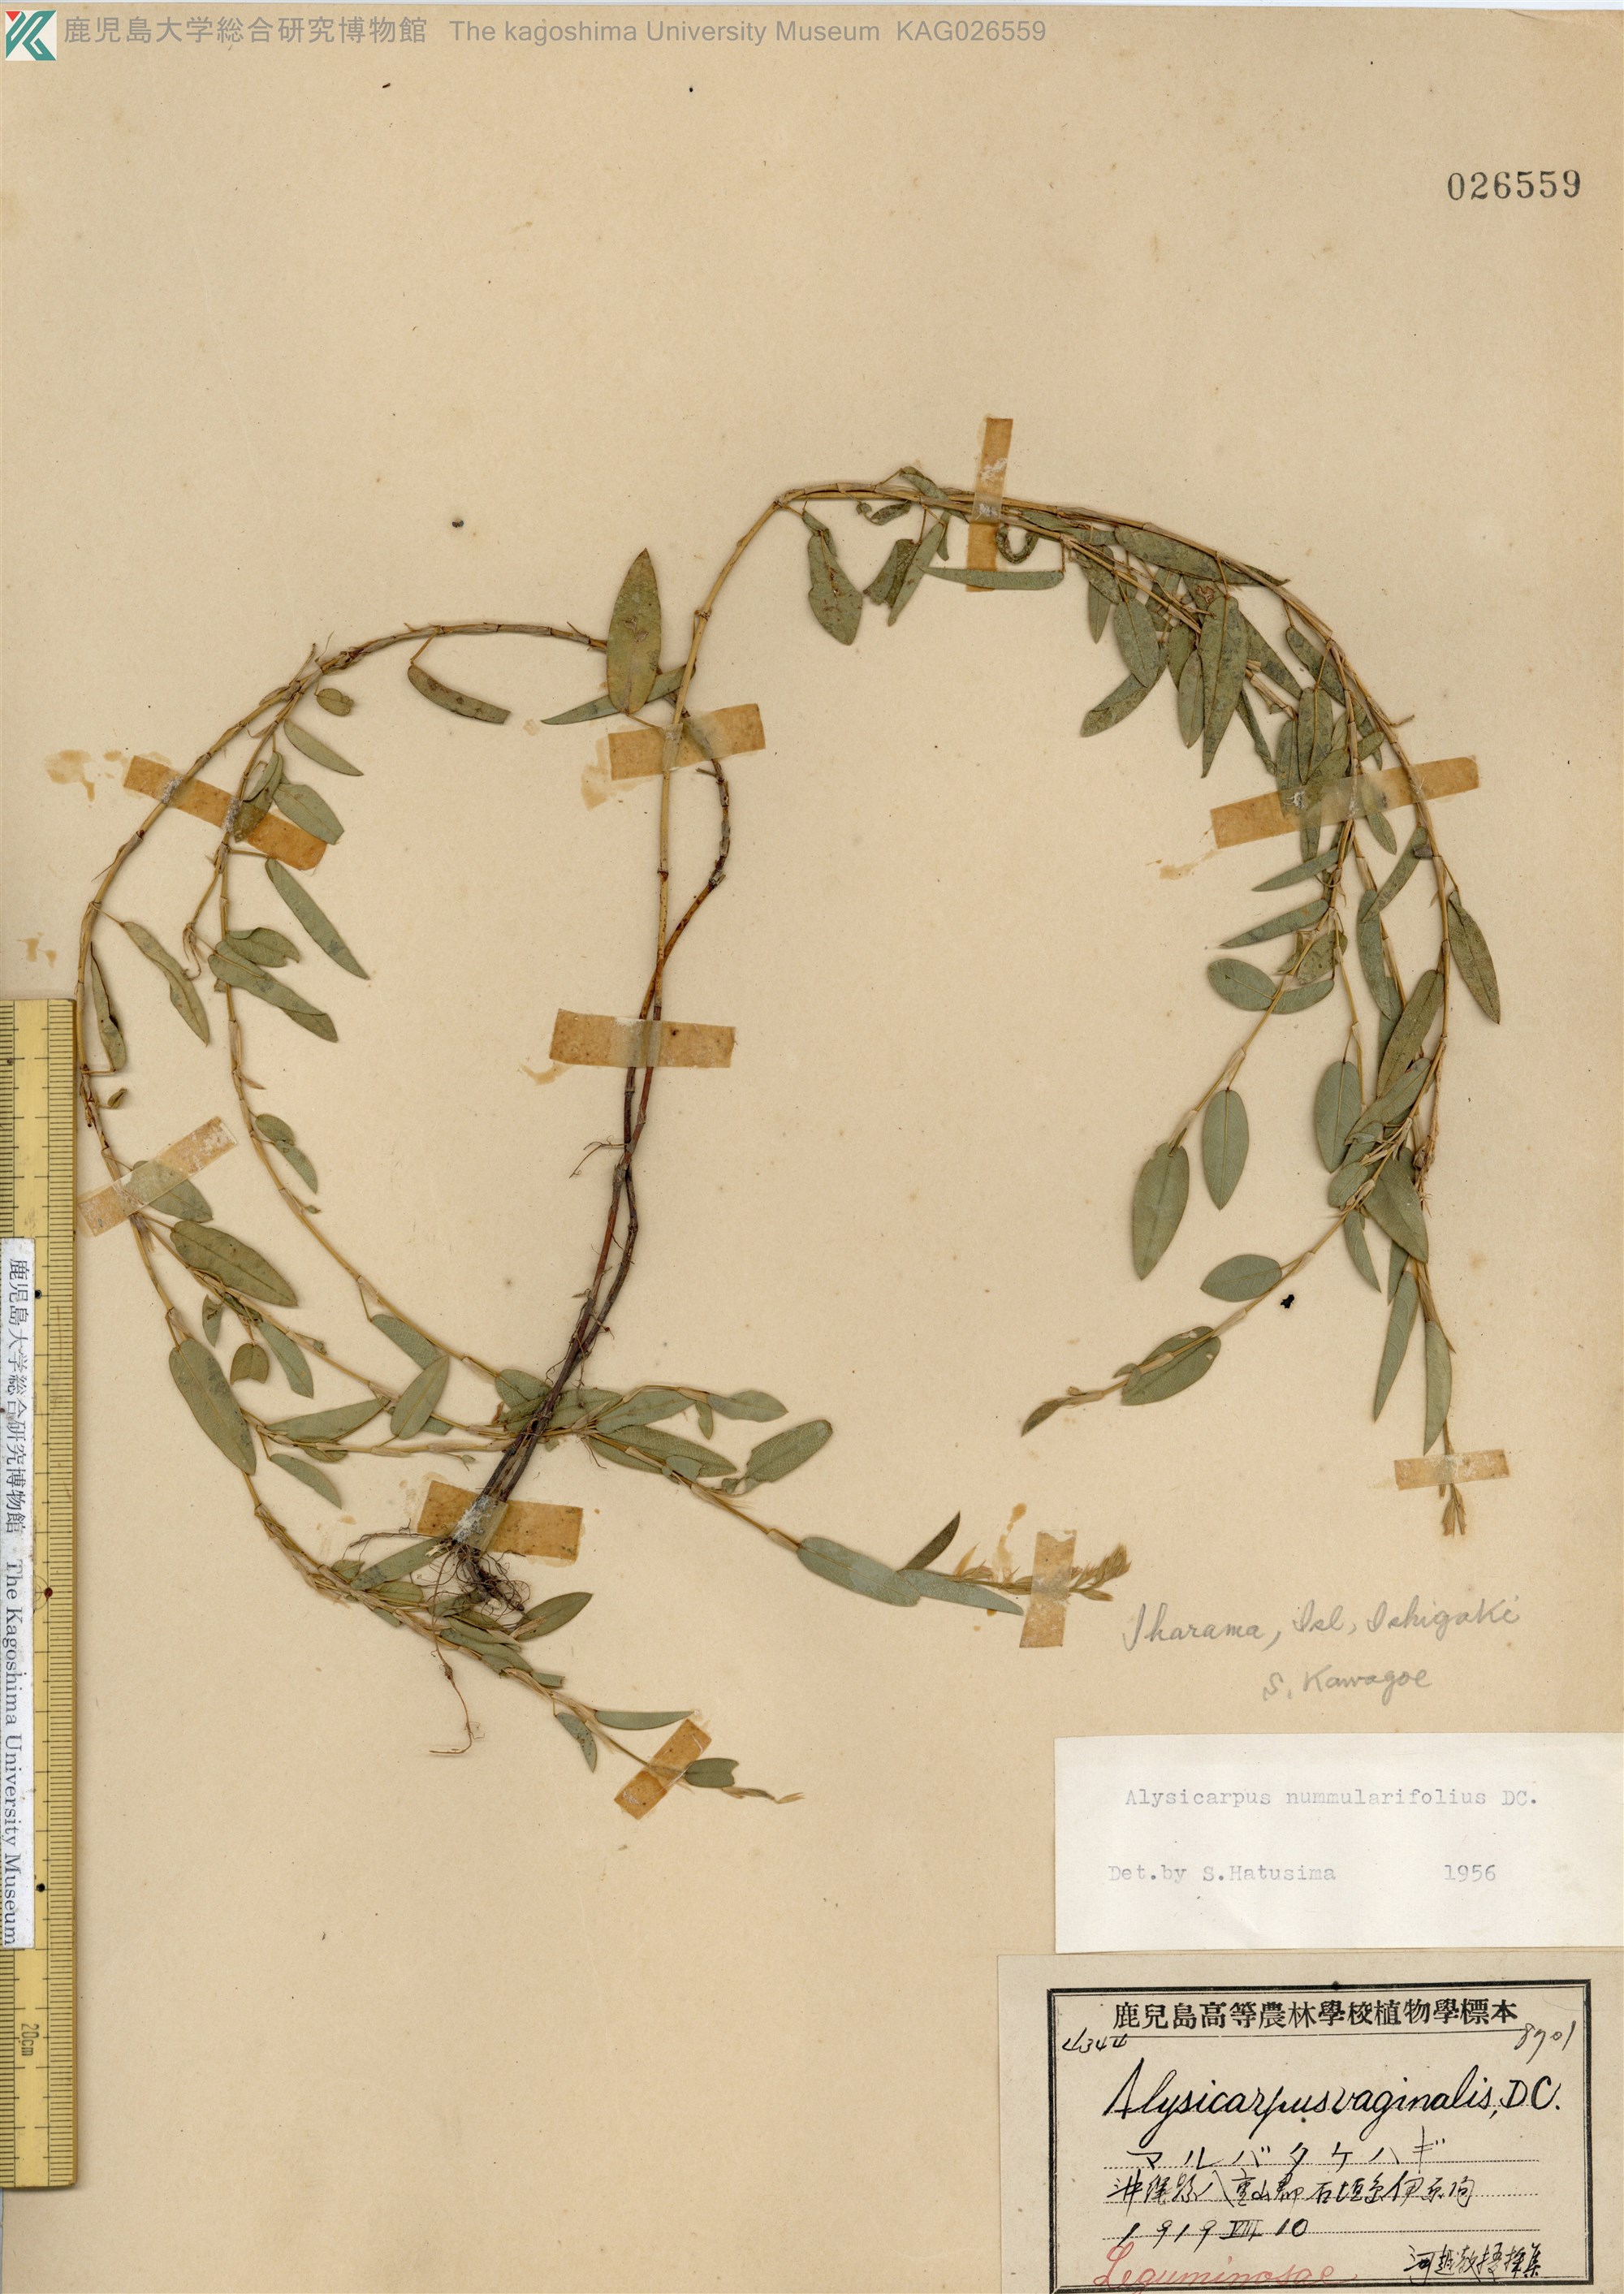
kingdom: Plantae
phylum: Tracheophyta
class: Magnoliopsida
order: Fabales
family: Fabaceae
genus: Alysicarpus
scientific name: Alysicarpus vaginalis
